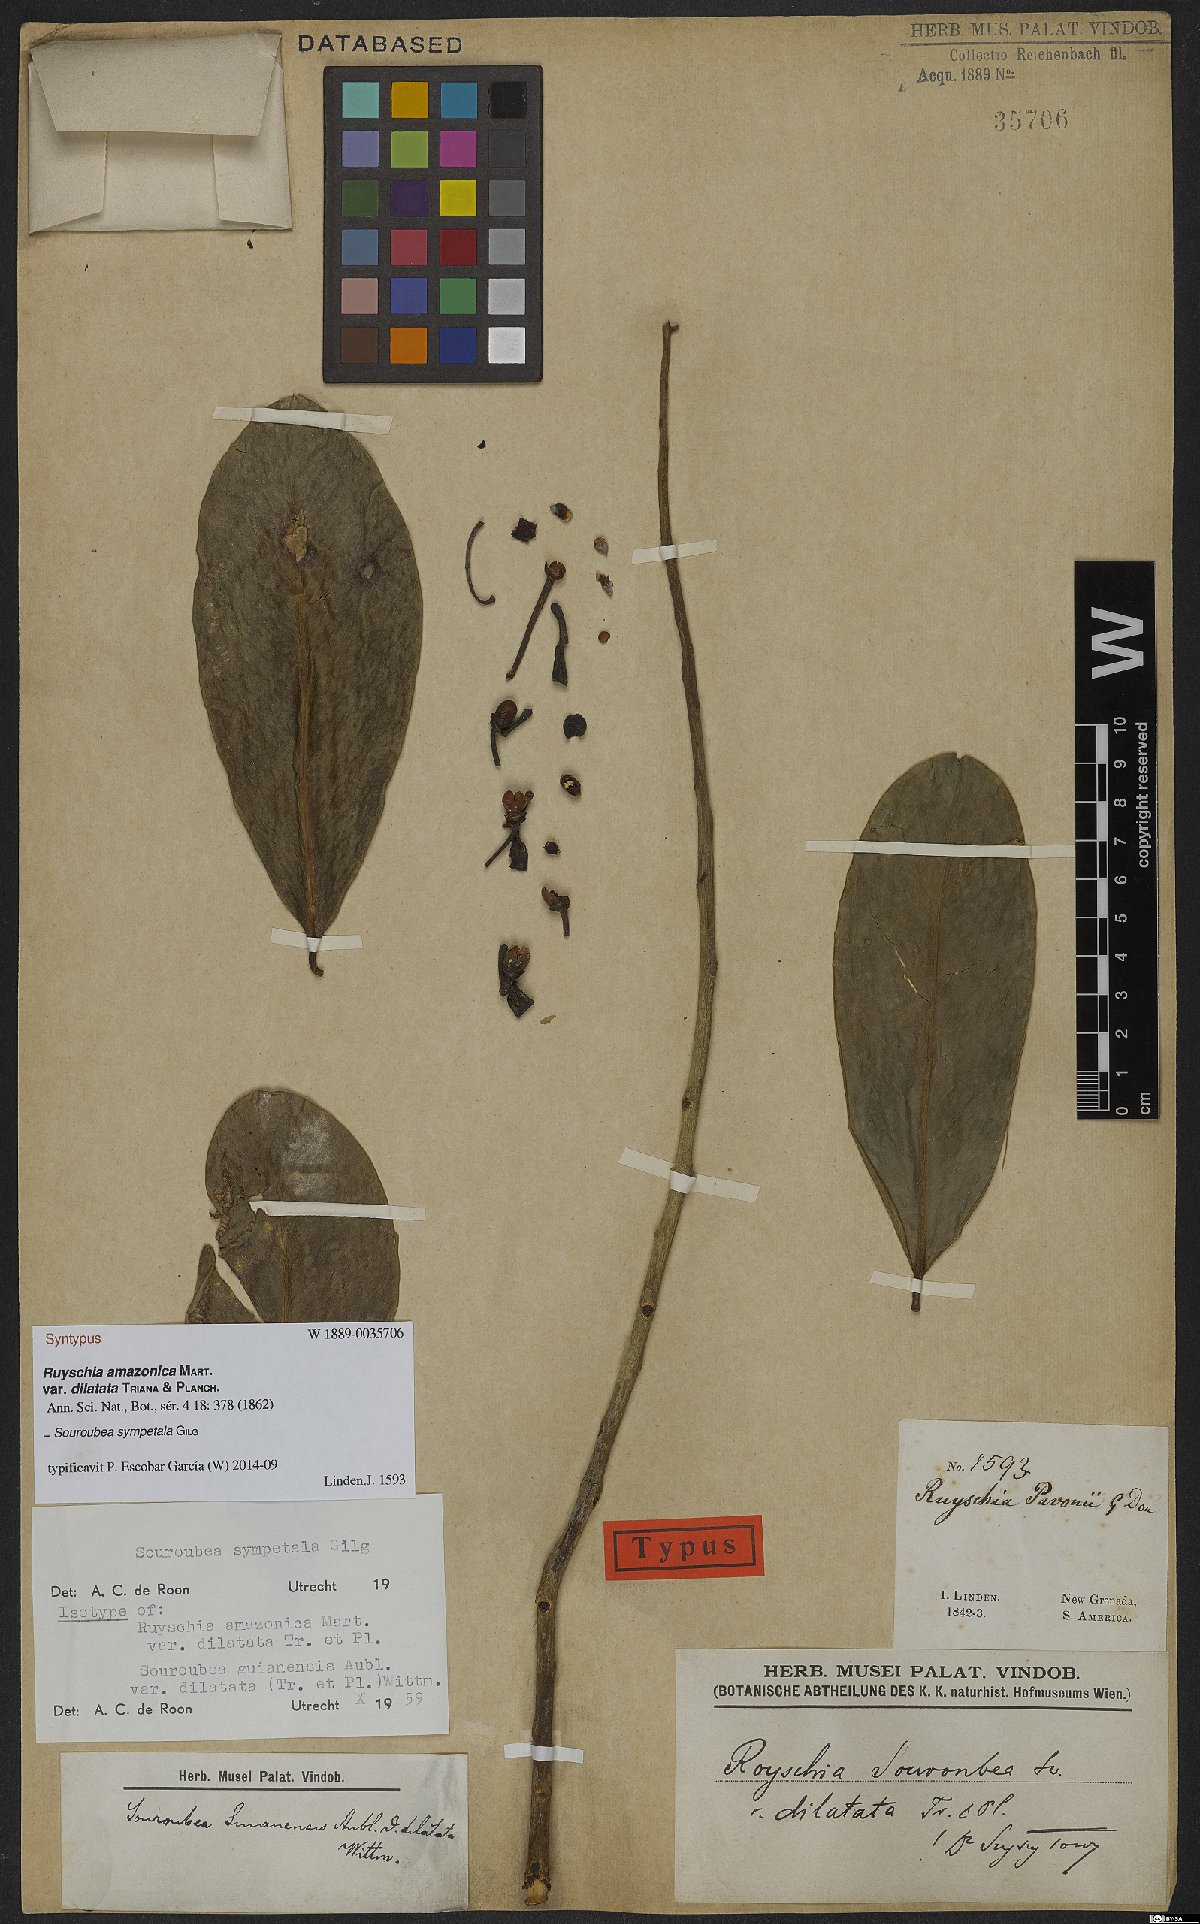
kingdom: Plantae
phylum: Tracheophyta
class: Magnoliopsida
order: Ericales
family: Marcgraviaceae
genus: Souroubea
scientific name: Souroubea sympetala
